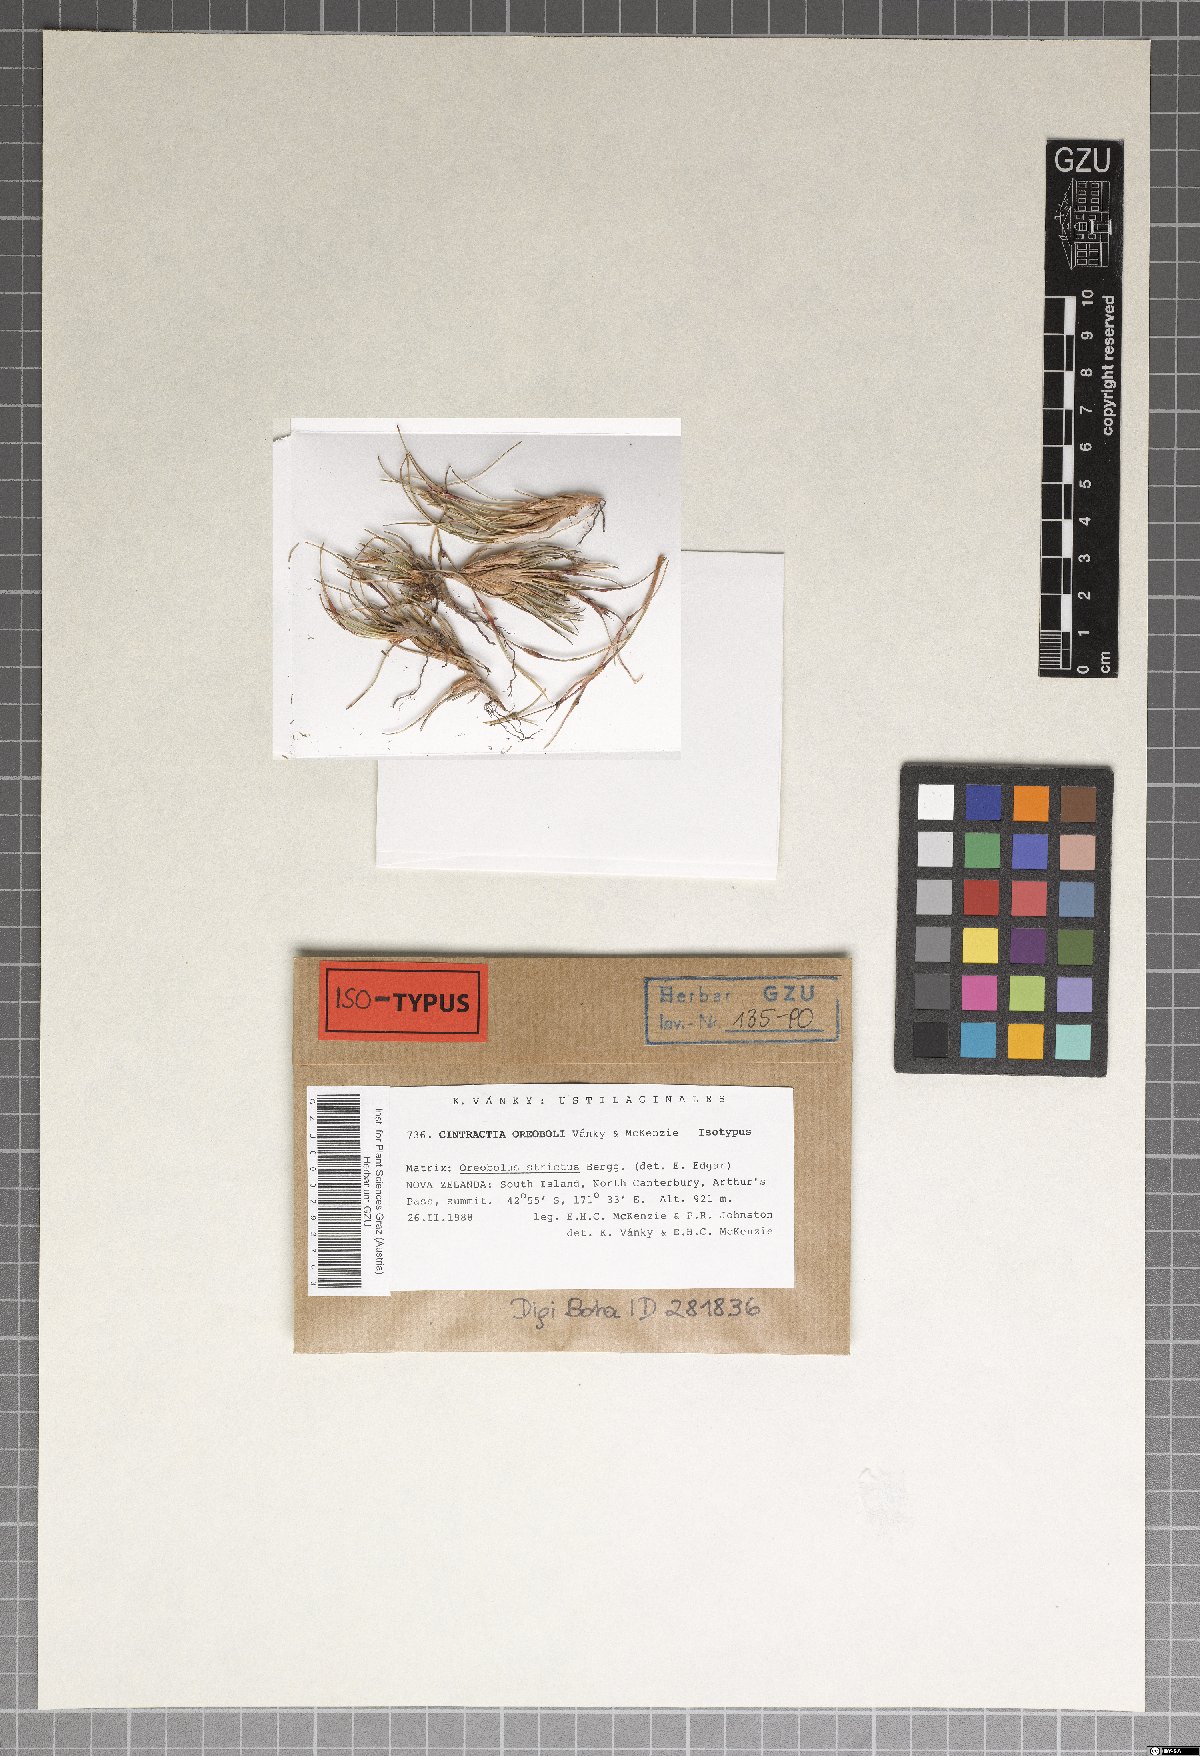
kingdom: Fungi
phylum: Basidiomycota
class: Ustilaginomycetes
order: Ustilaginales
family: Anthracoideaceae
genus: Cintractia
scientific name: Cintractia oreoboli
